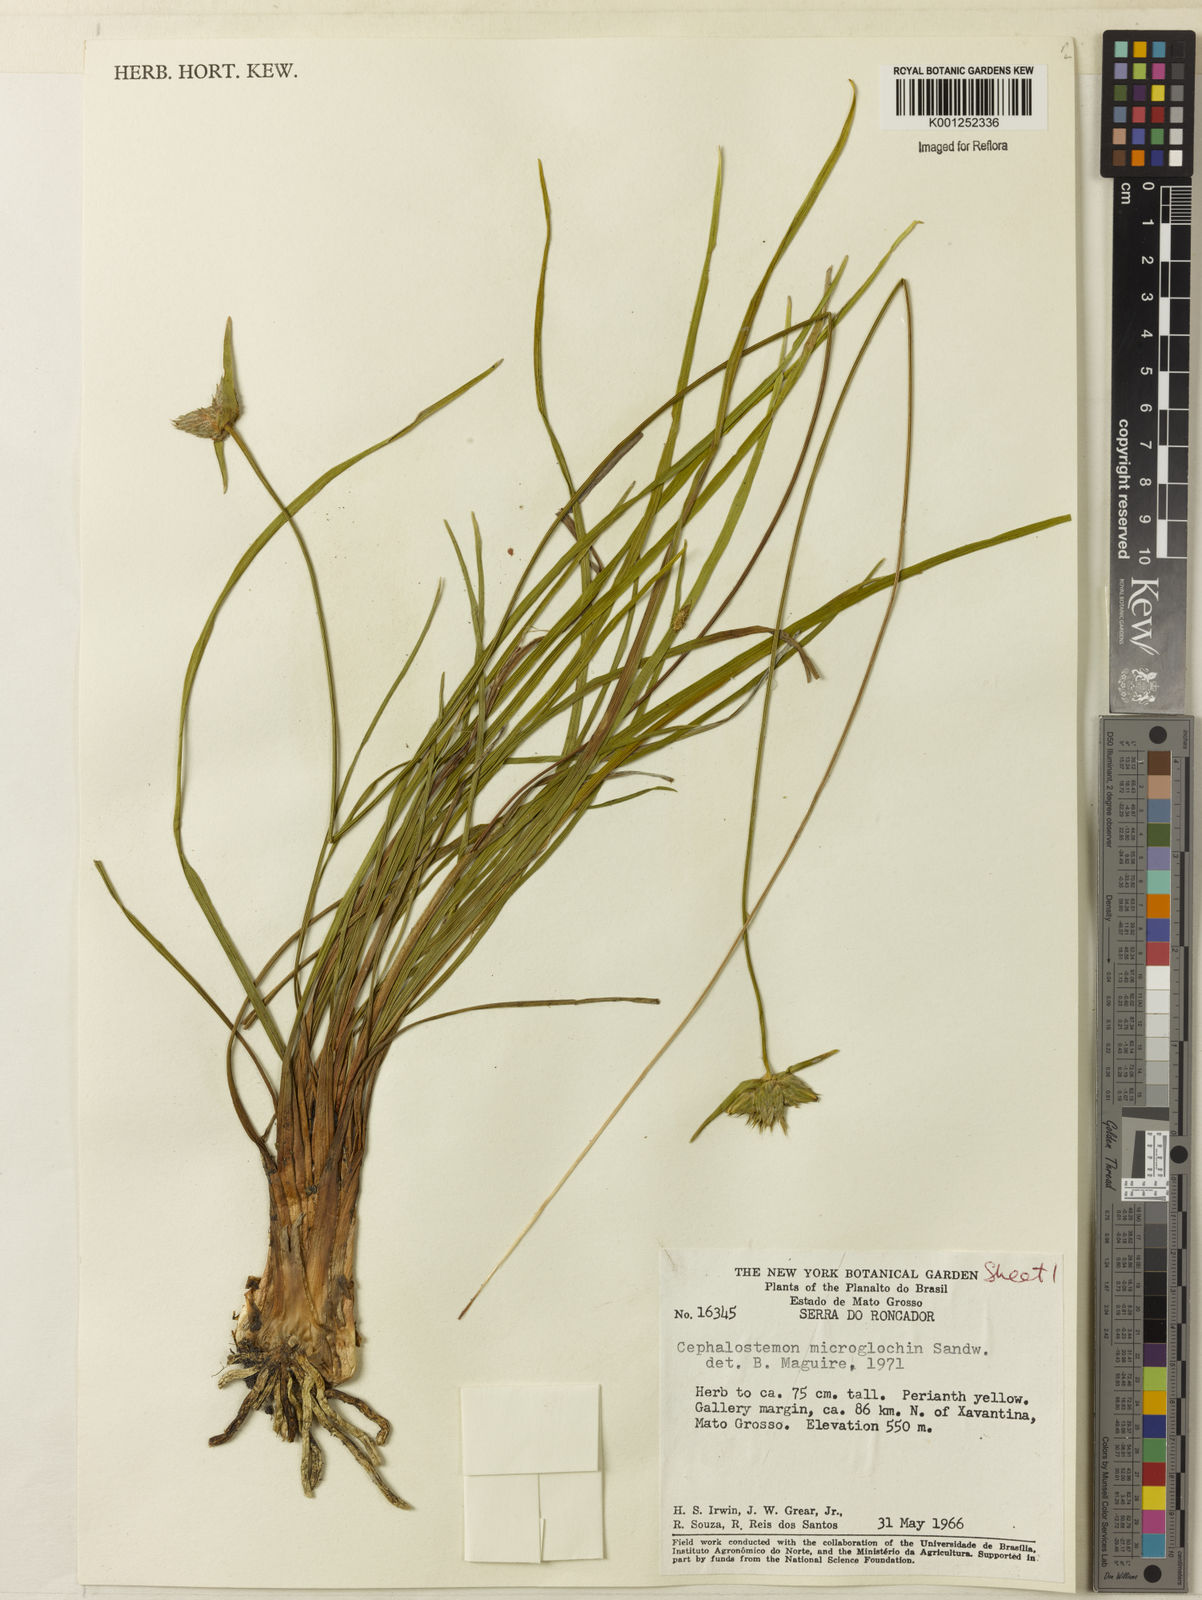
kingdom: Plantae
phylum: Tracheophyta
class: Liliopsida
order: Poales
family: Rapateaceae
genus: Cephalostemon
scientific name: Cephalostemon microglochin
